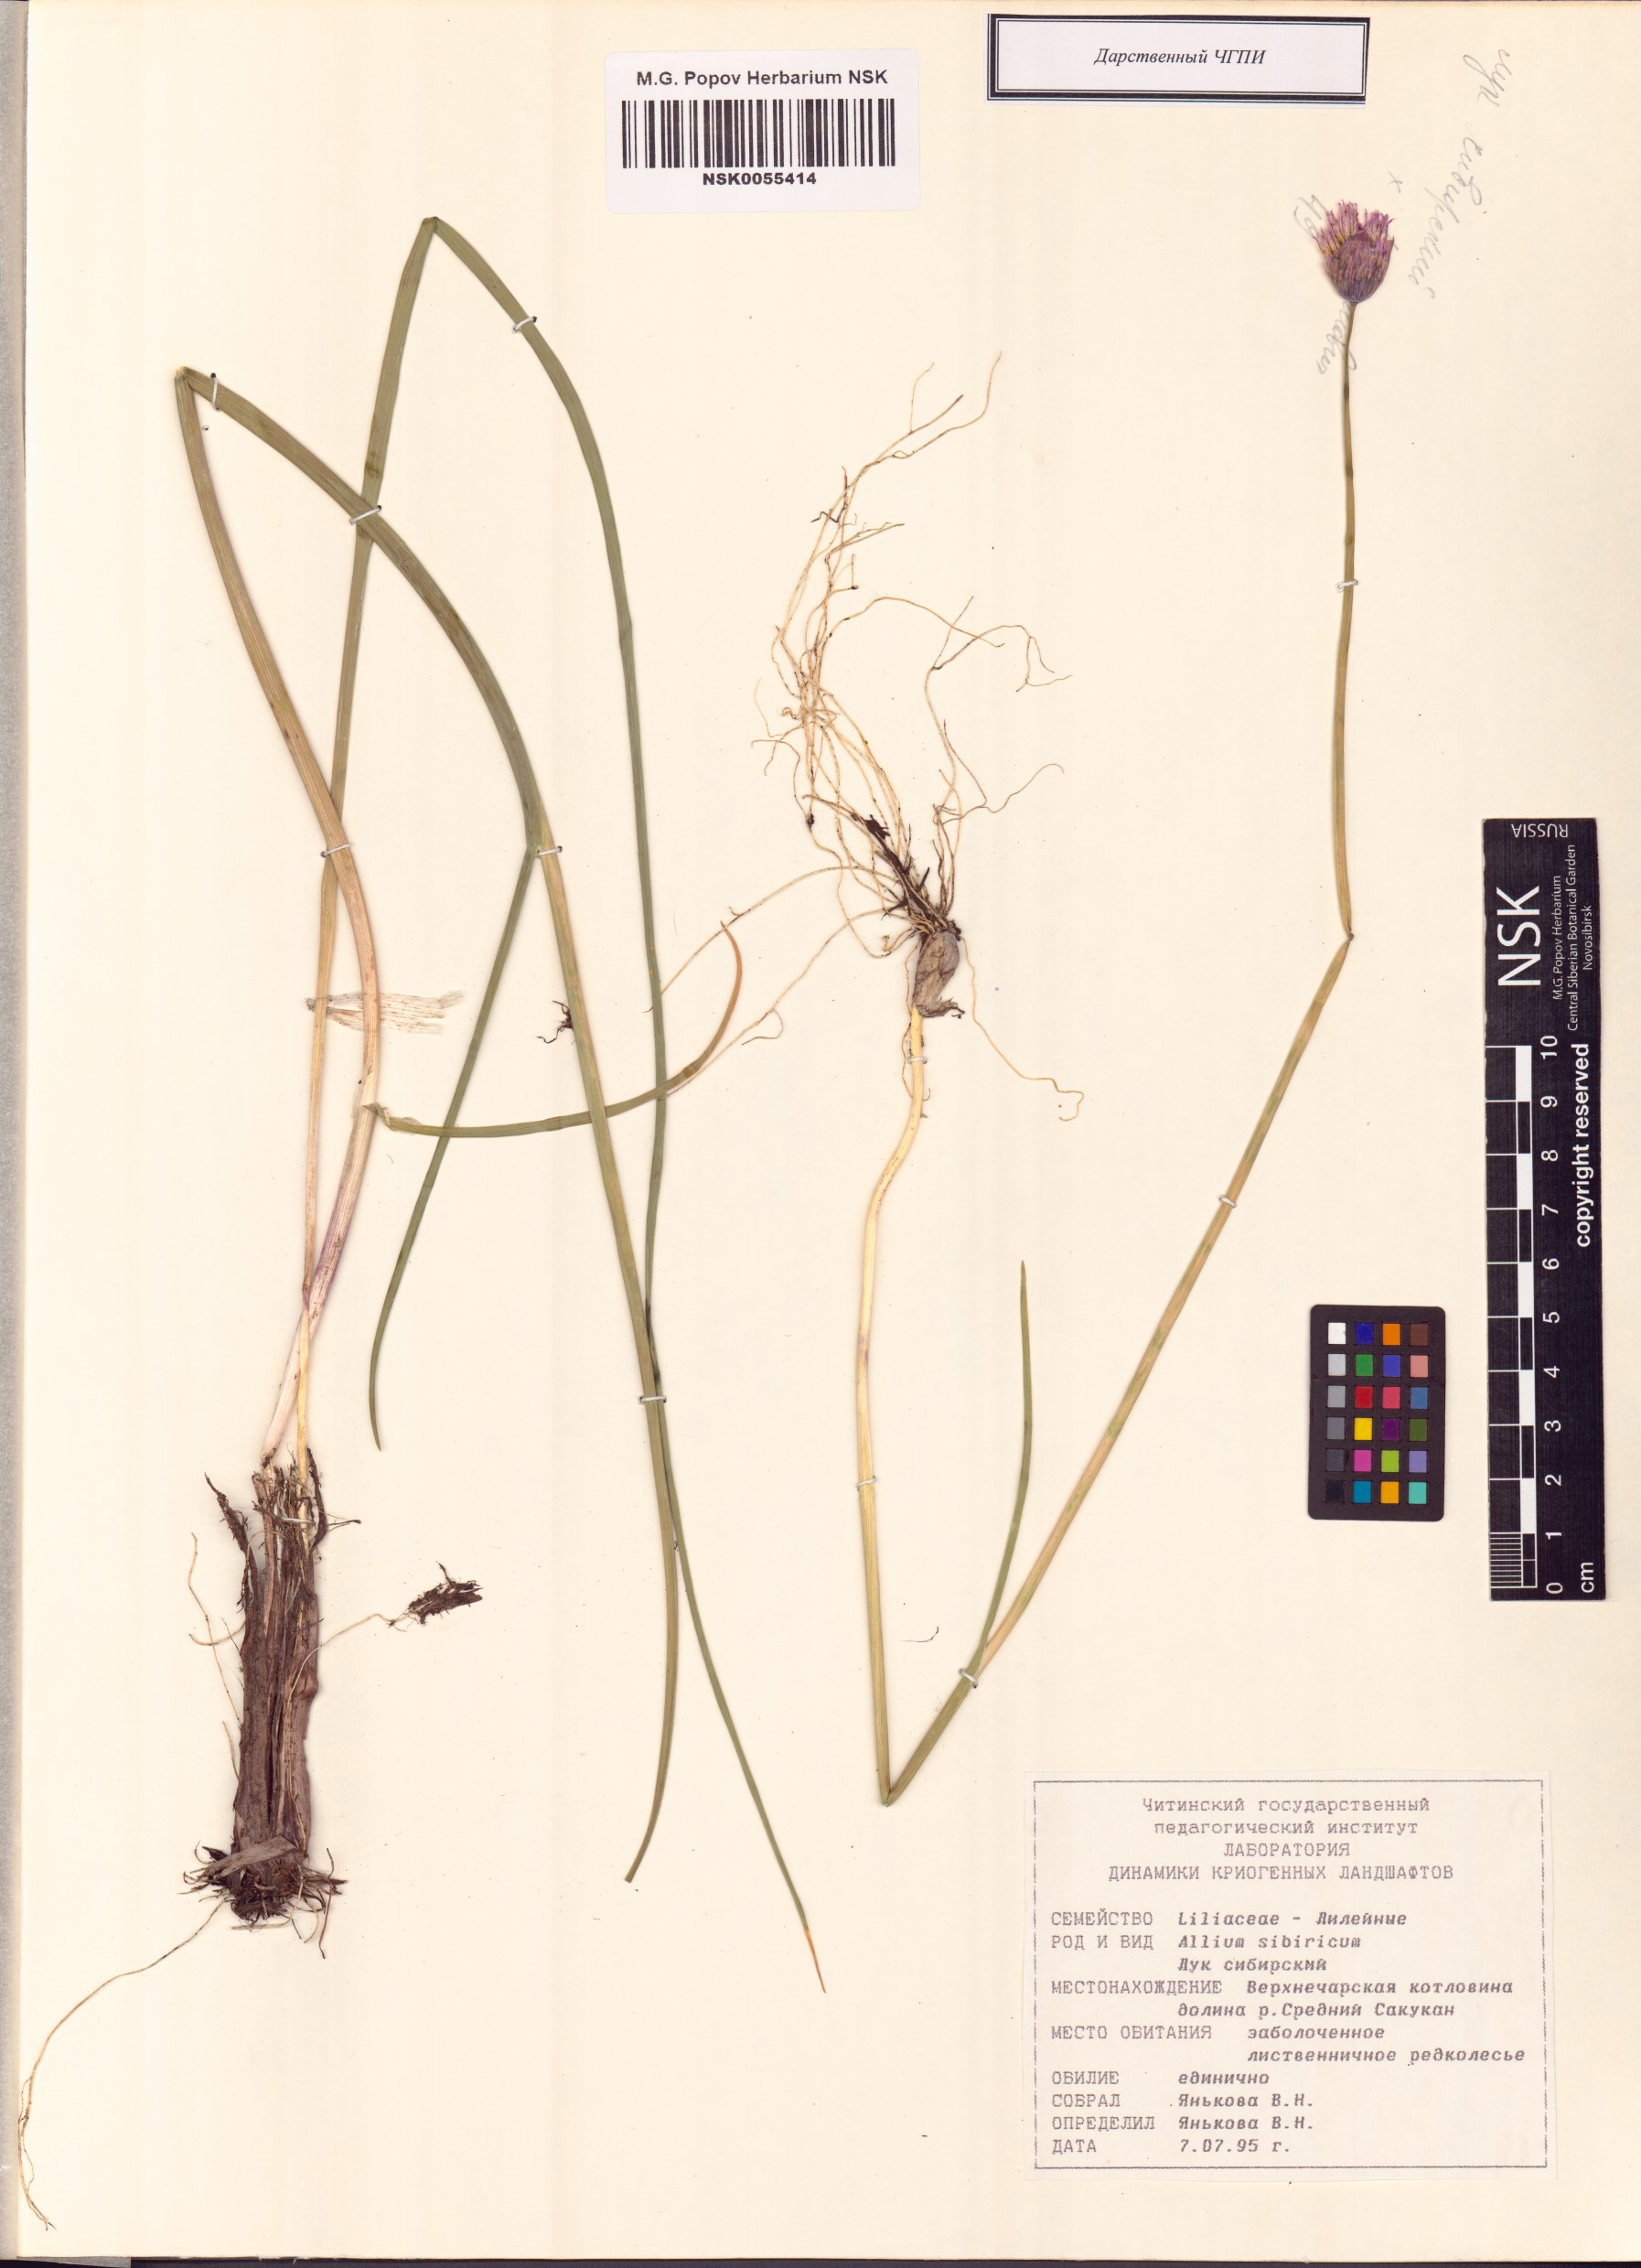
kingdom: Plantae
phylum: Tracheophyta
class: Liliopsida
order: Asparagales
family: Amaryllidaceae
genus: Allium
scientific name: Allium schoenoprasum
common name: Chives
